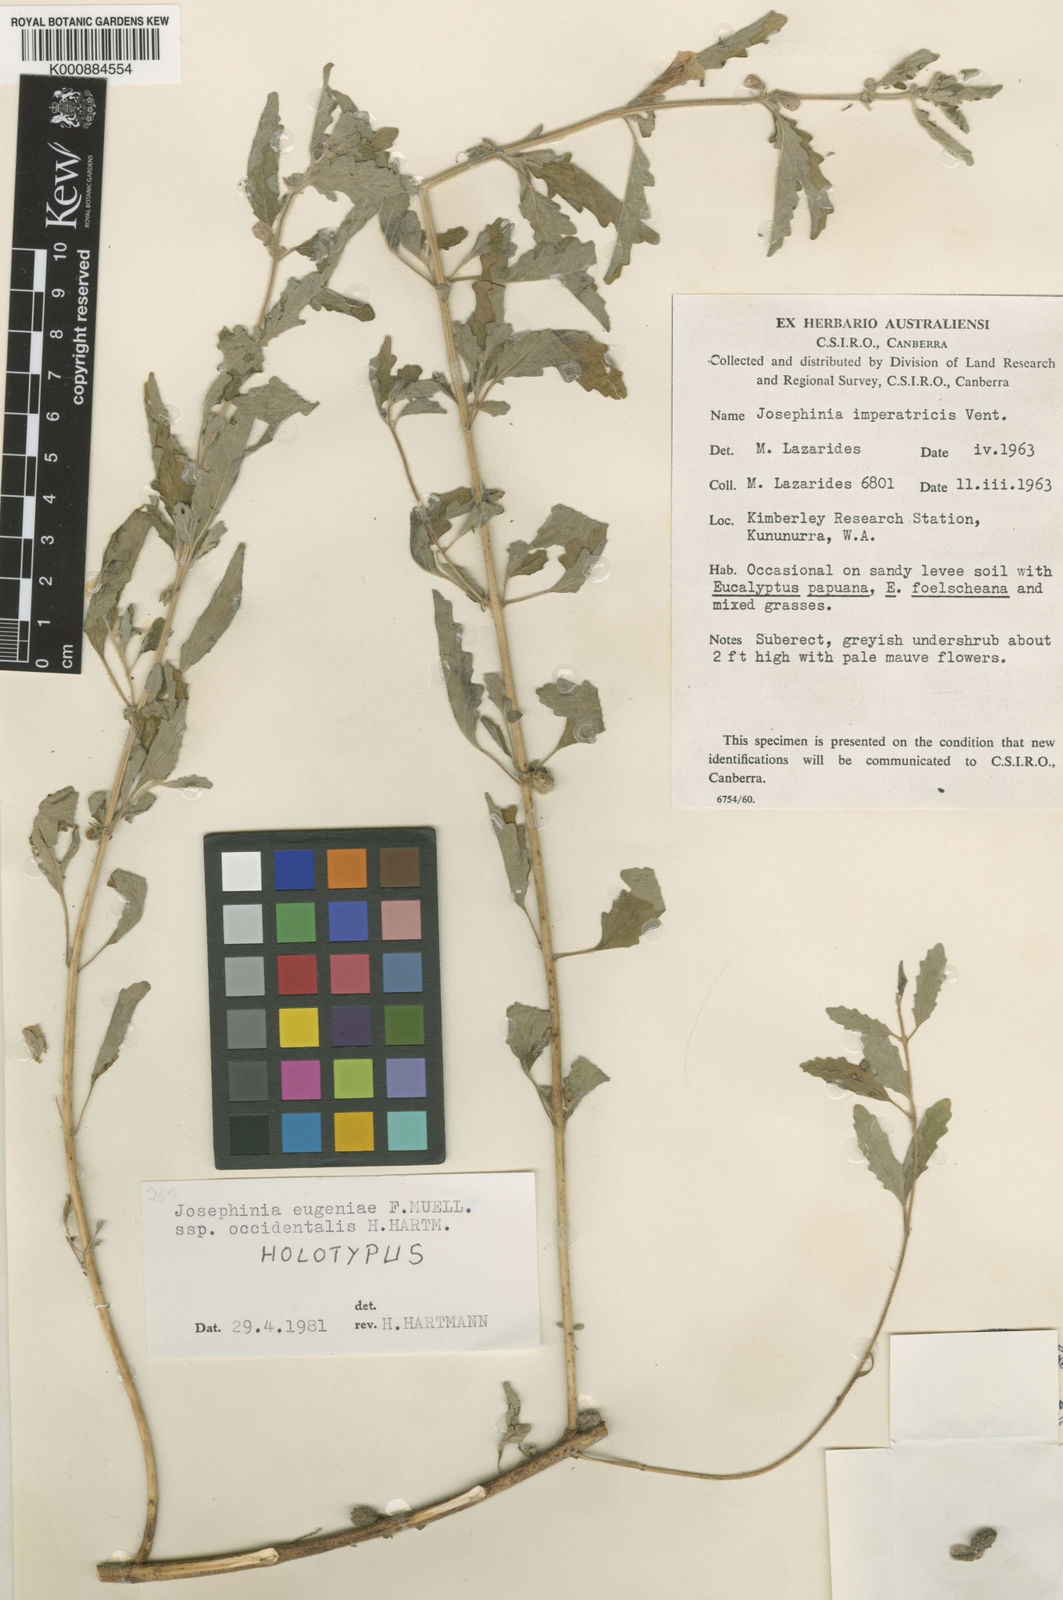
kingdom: Plantae
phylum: Tracheophyta
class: Magnoliopsida
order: Lamiales
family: Pedaliaceae
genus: Josephinia
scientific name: Josephinia eugeniae
